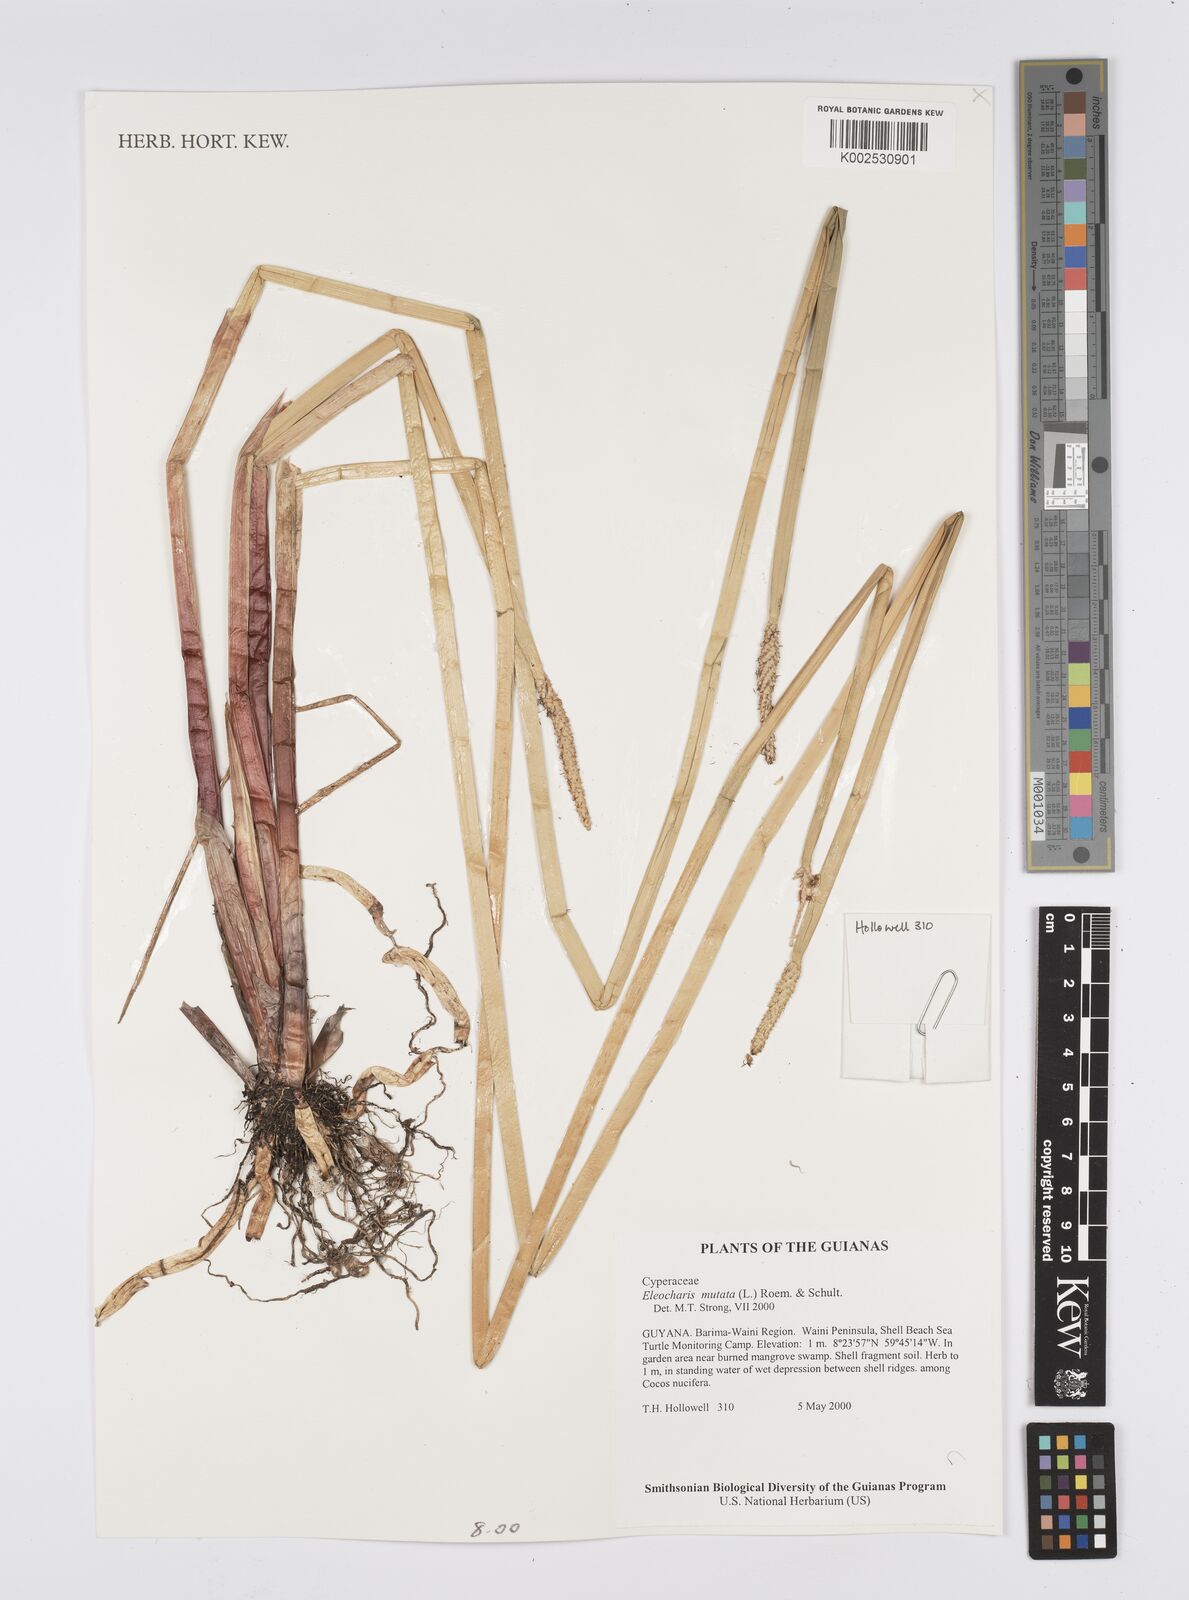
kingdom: Plantae
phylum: Tracheophyta
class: Liliopsida
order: Poales
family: Cyperaceae
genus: Eleocharis
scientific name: Eleocharis mutata
